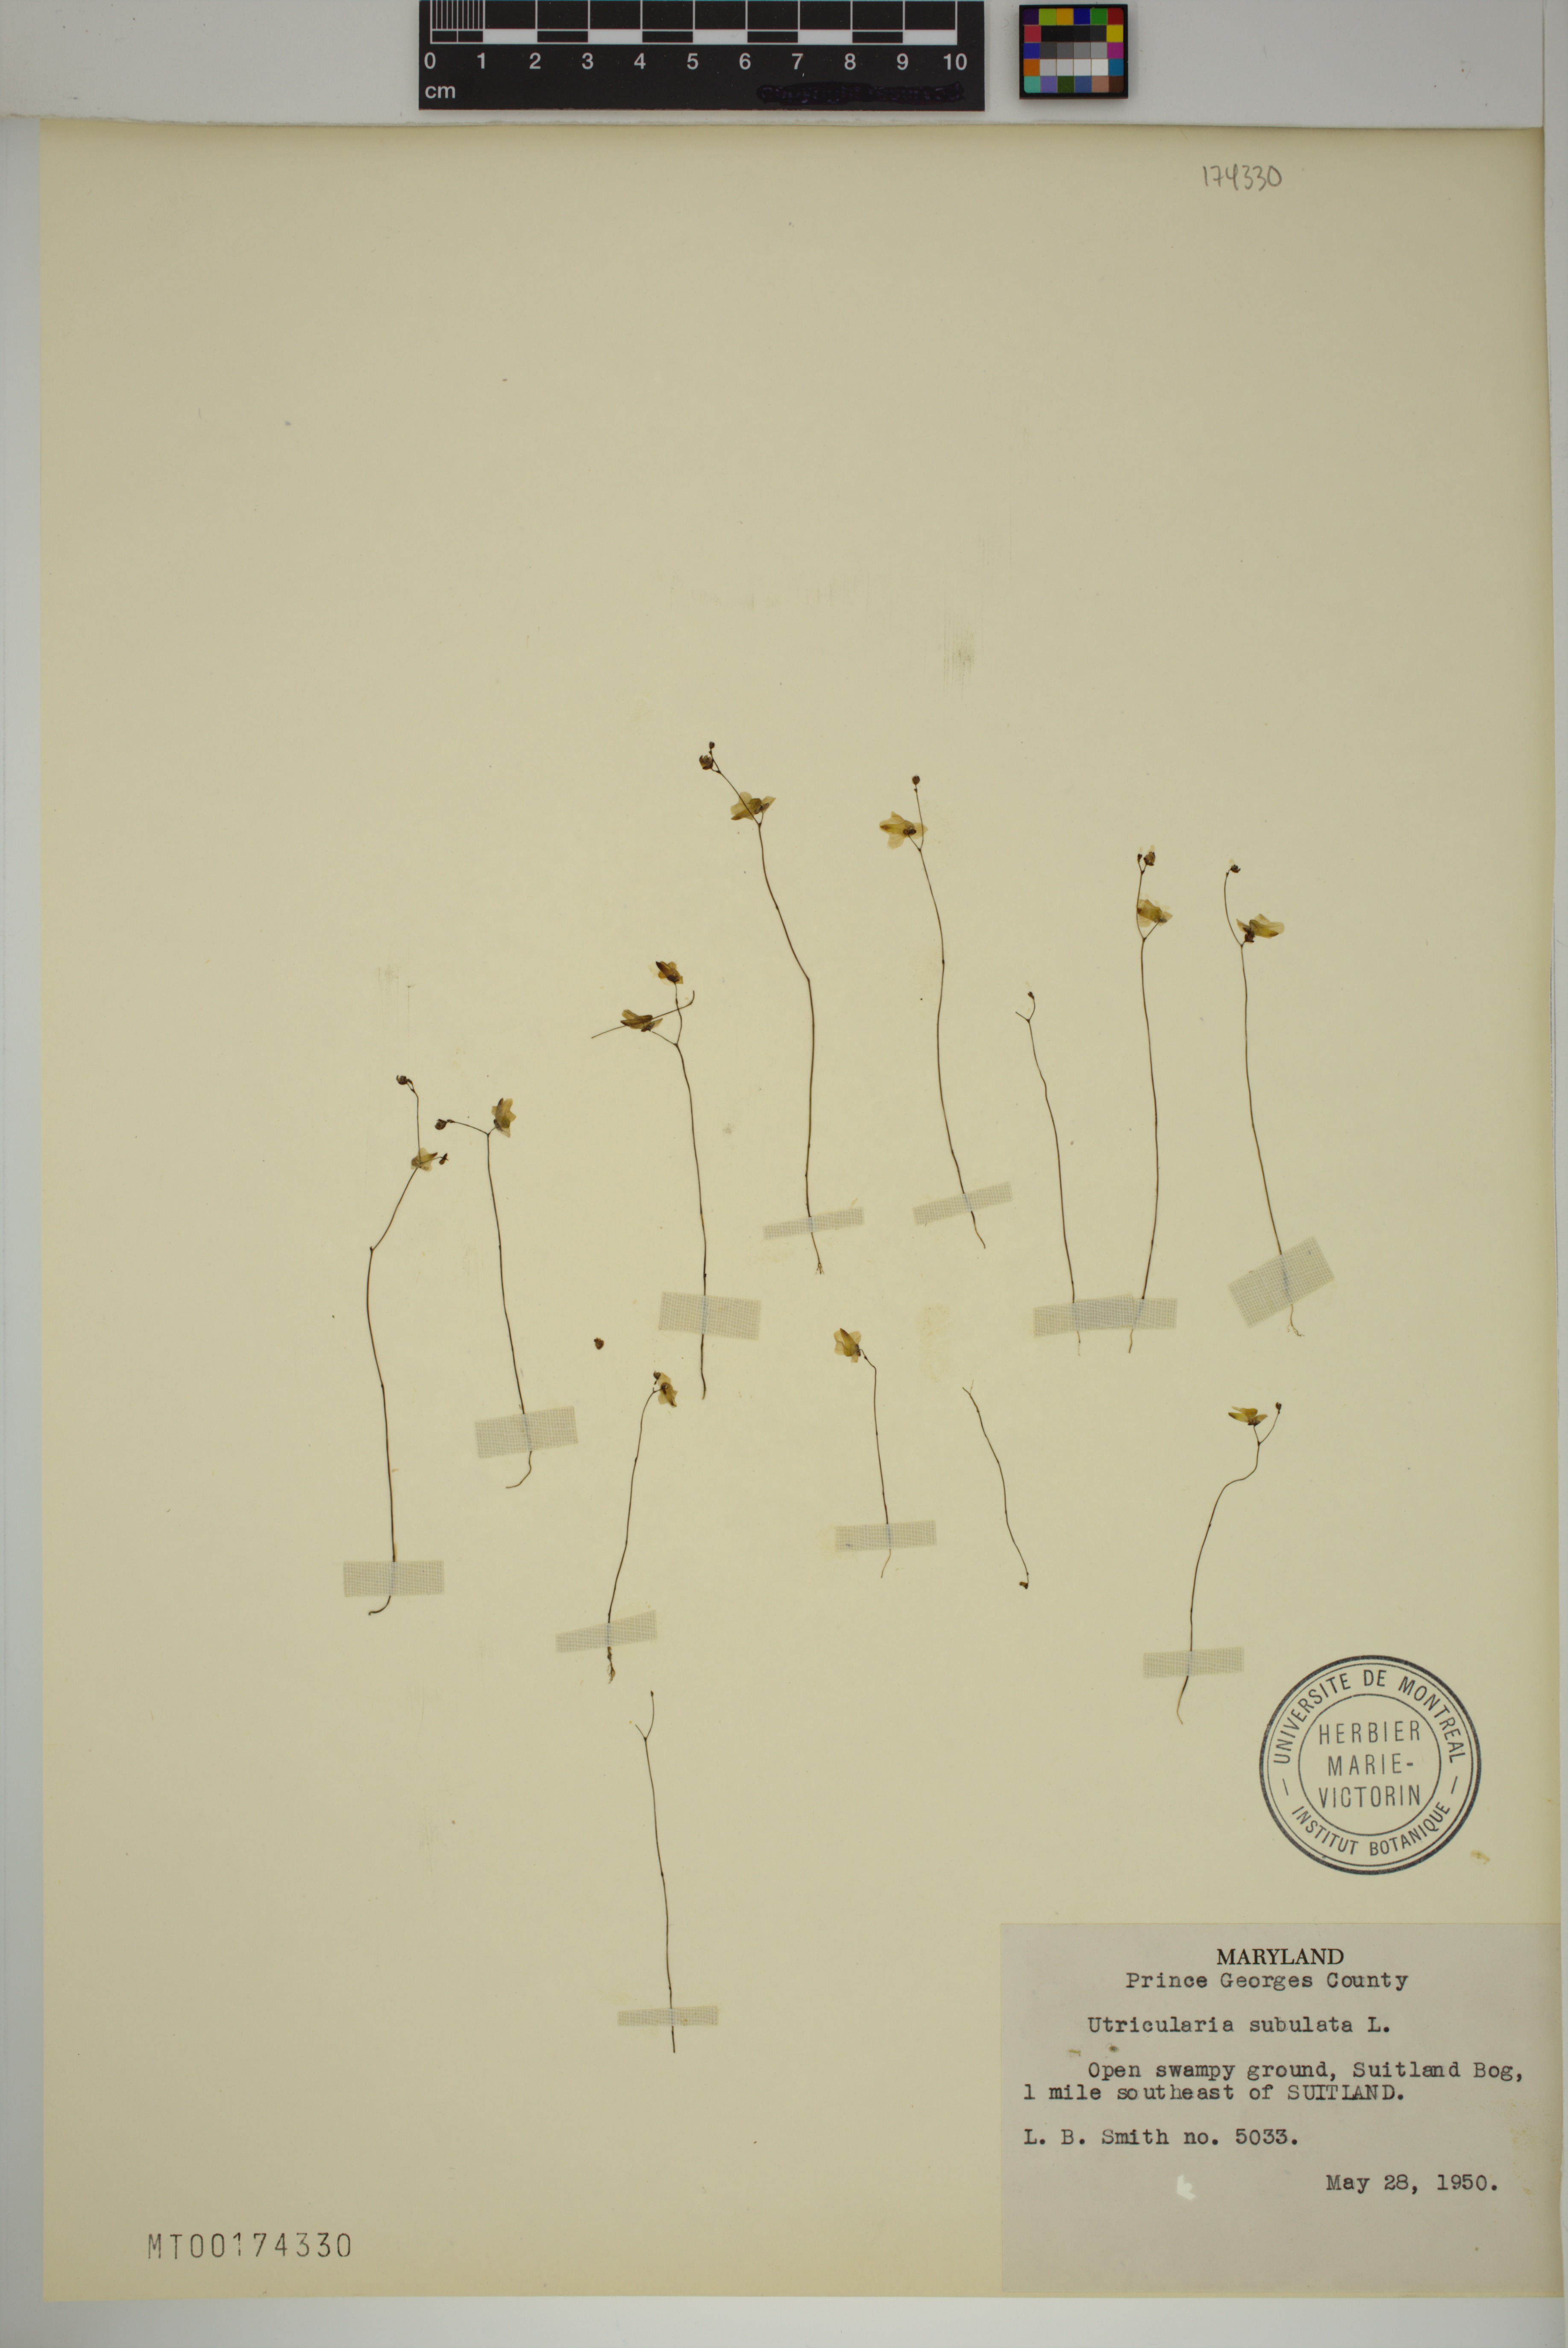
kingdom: Plantae
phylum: Tracheophyta
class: Magnoliopsida
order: Lamiales
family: Lentibulariaceae
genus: Utricularia
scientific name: Utricularia subulata
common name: Tiny bladderwort
